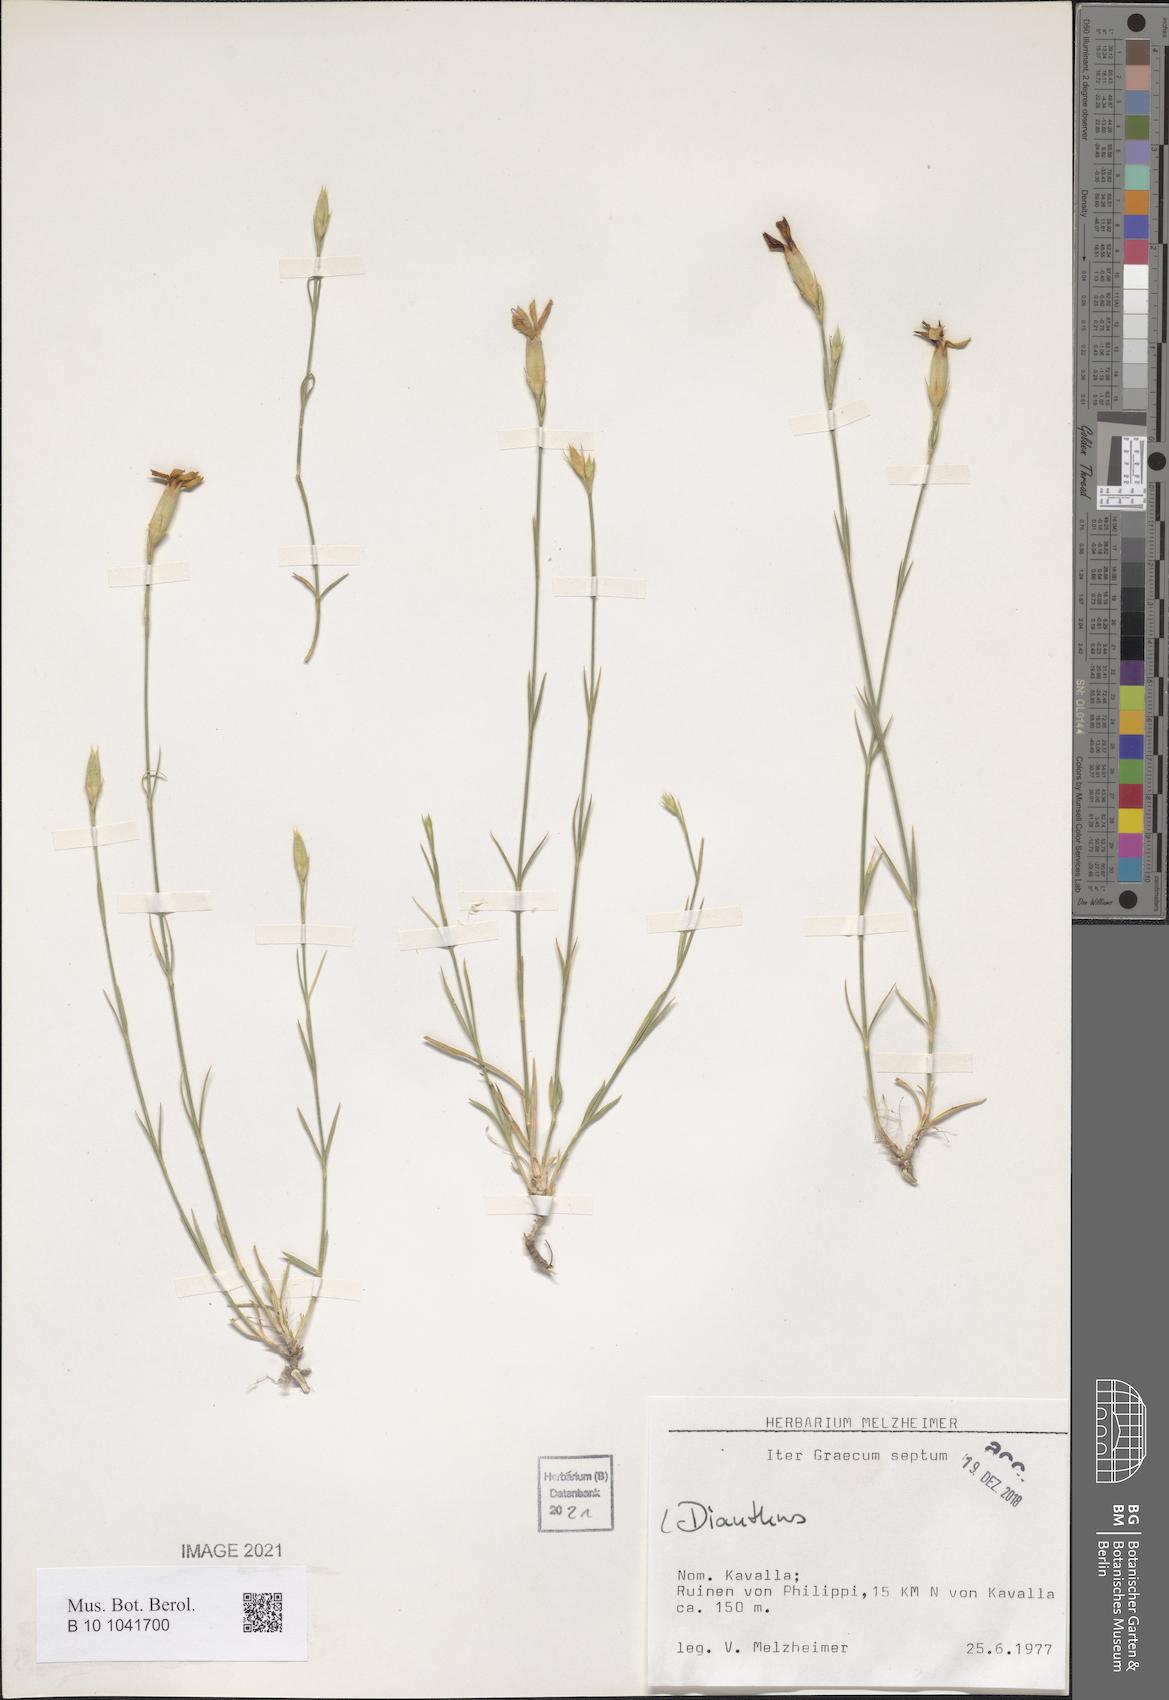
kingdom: Plantae
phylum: Tracheophyta
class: Magnoliopsida
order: Caryophyllales
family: Caryophyllaceae
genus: Dianthus
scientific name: Dianthus
